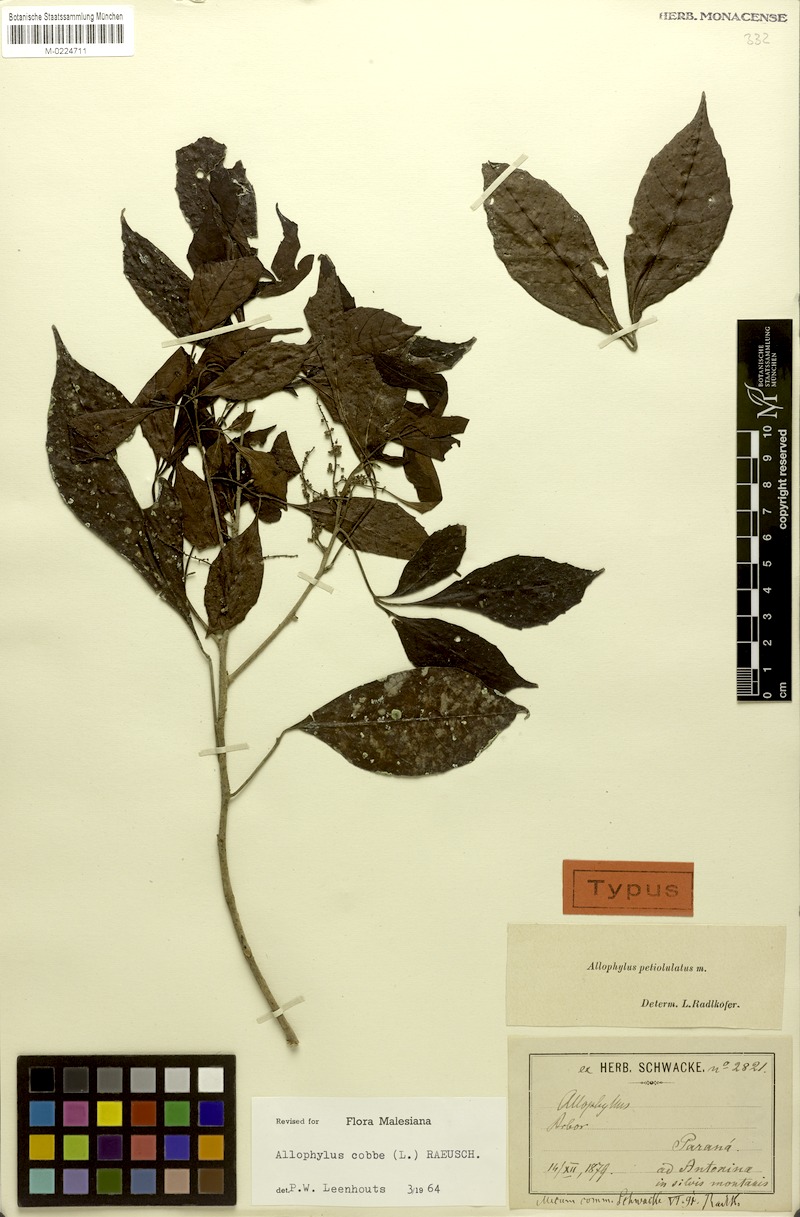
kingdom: Plantae
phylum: Tracheophyta
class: Magnoliopsida
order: Sapindales
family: Sapindaceae
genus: Allophylus
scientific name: Allophylus petiolulatus
